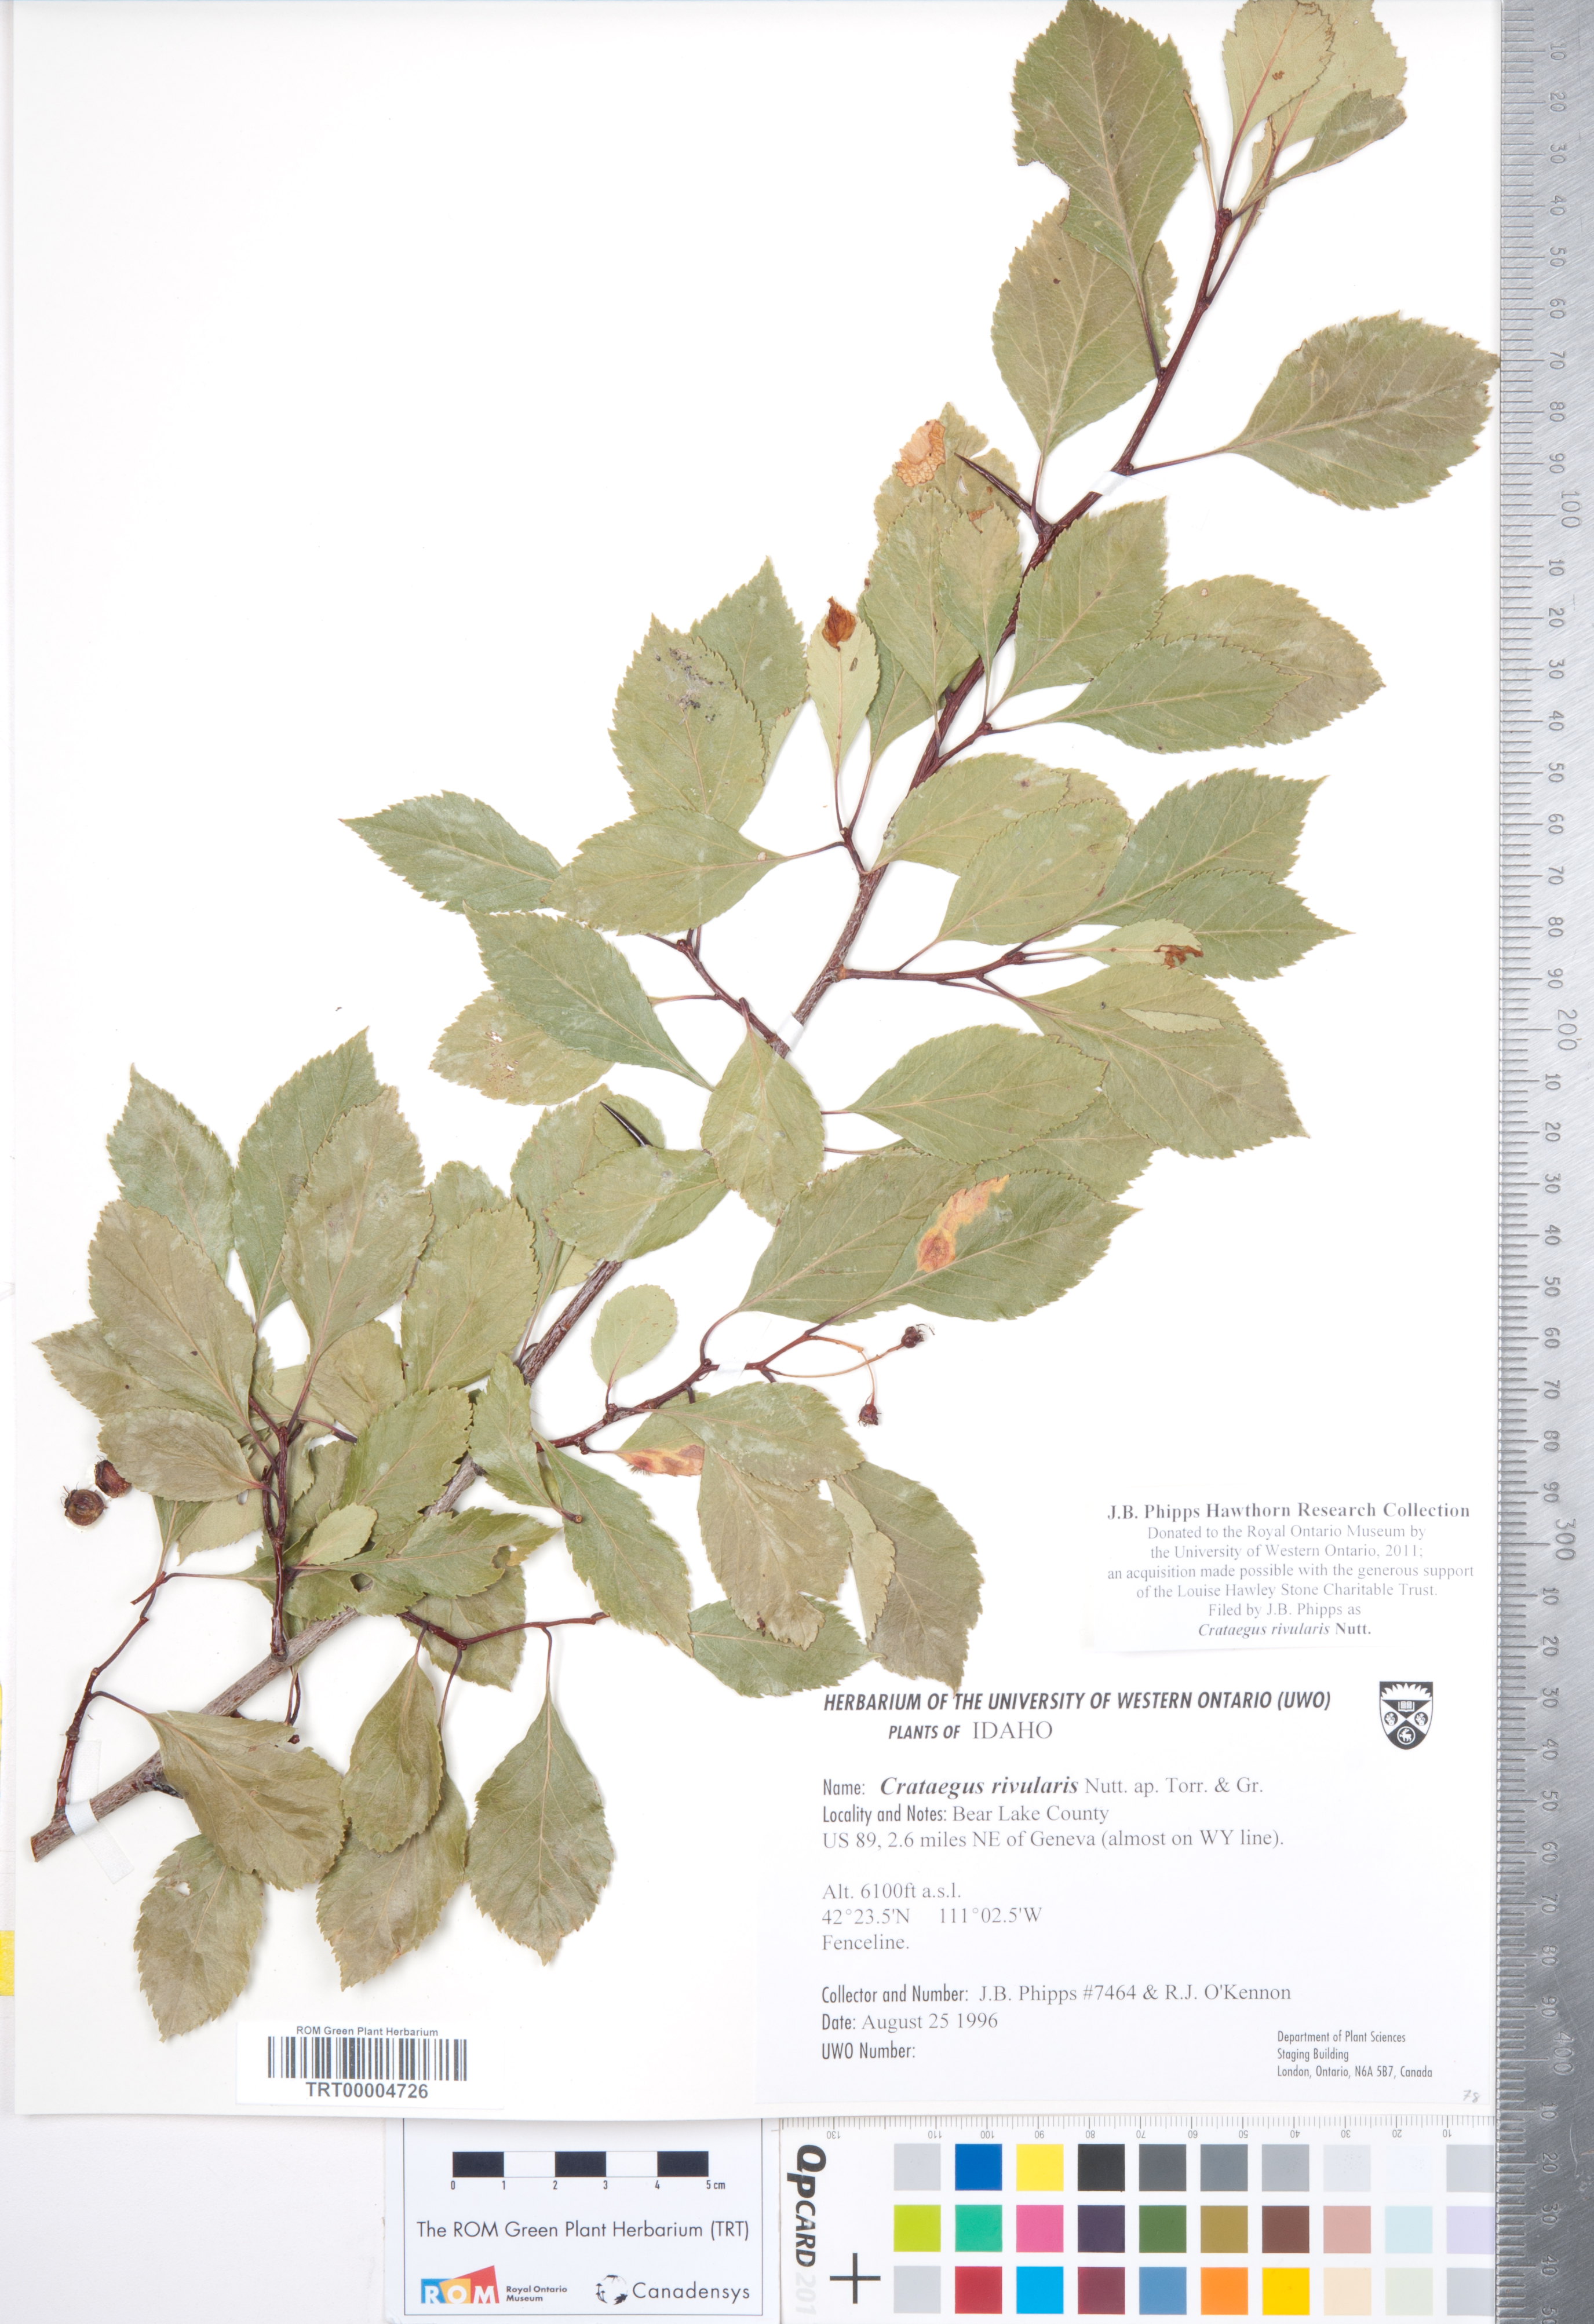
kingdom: Plantae
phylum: Tracheophyta
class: Magnoliopsida
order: Rosales
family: Rosaceae
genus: Crataegus
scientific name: Crataegus rivularis
